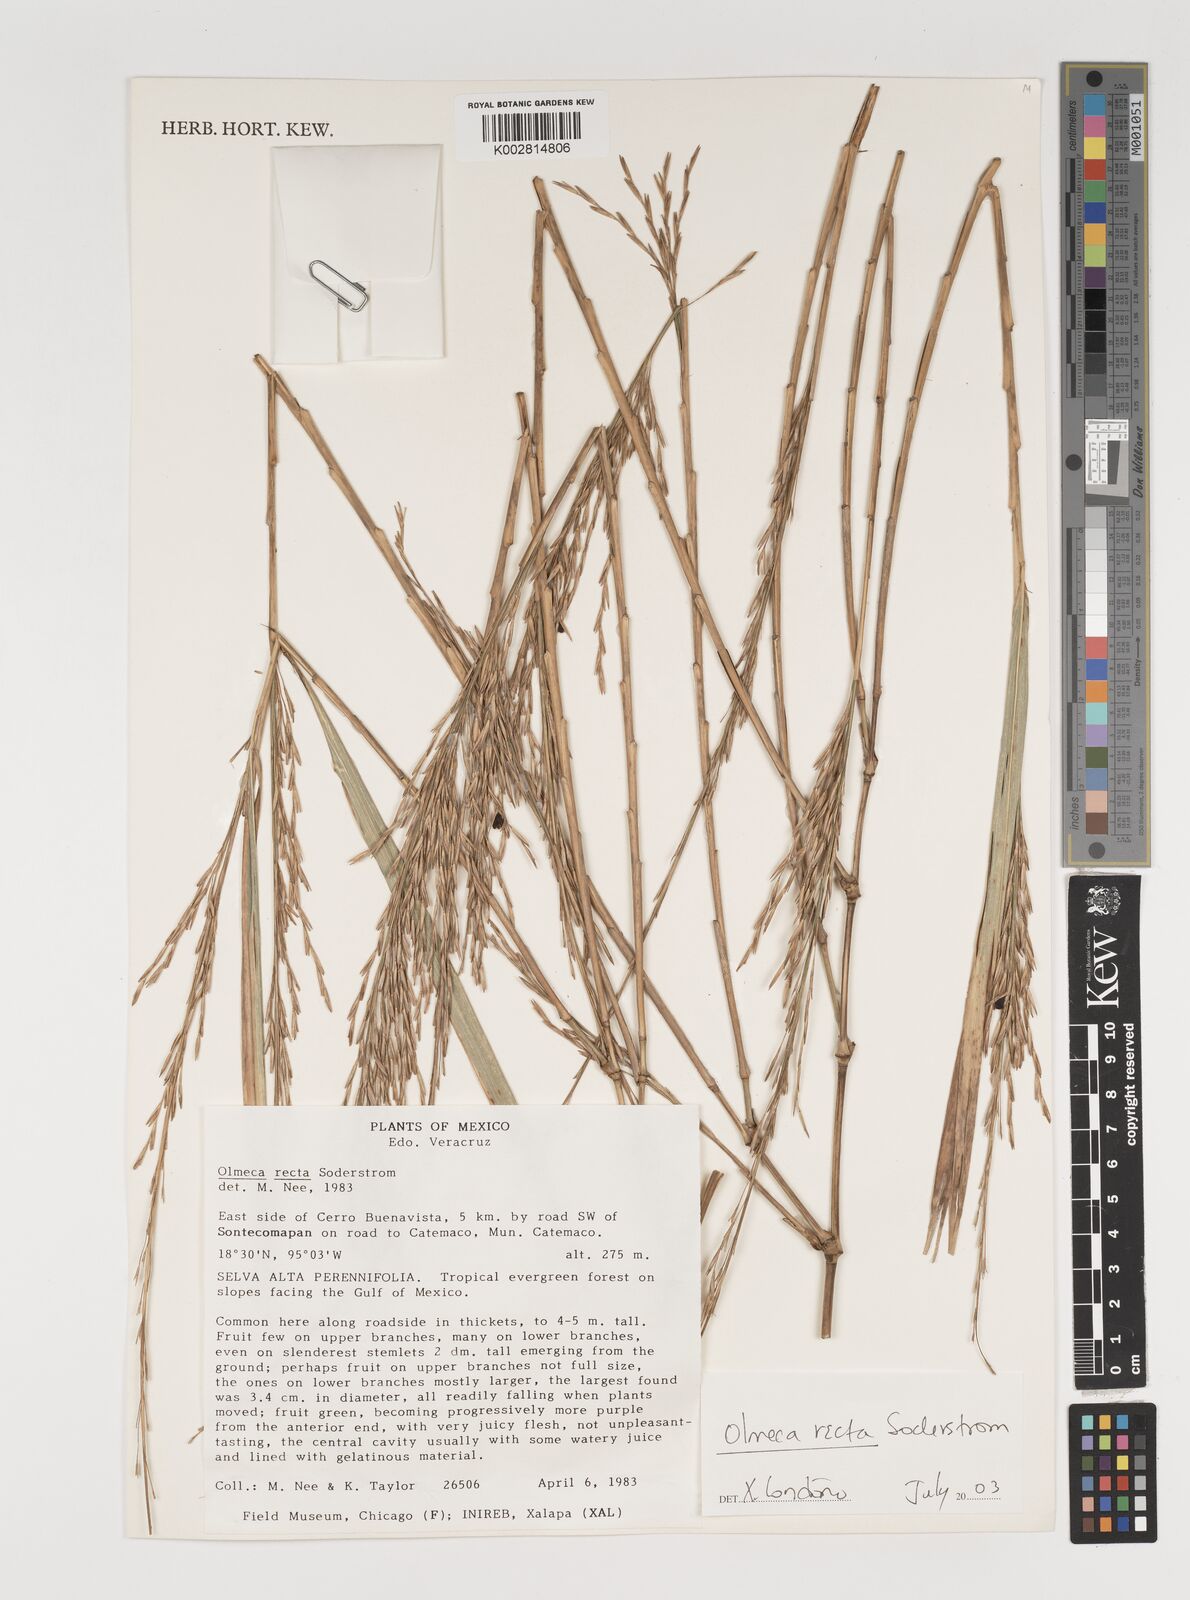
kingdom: Plantae
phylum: Tracheophyta
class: Liliopsida
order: Poales
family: Poaceae
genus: Olmeca
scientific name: Olmeca recta
